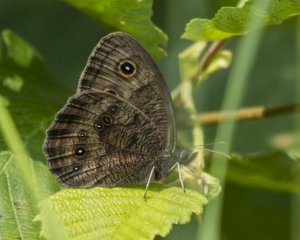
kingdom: Animalia
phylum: Arthropoda
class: Insecta
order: Lepidoptera
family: Nymphalidae
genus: Cercyonis
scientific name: Cercyonis pegala
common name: Common Wood-Nymph
